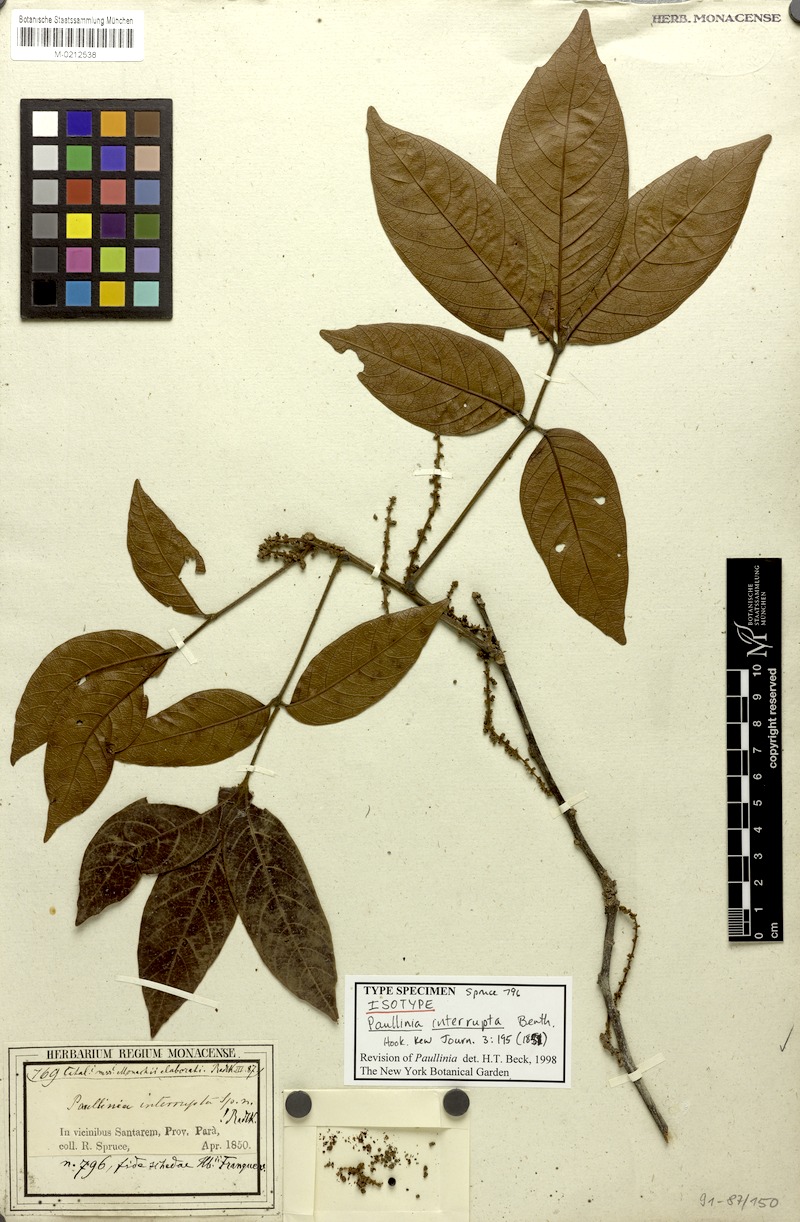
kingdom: Plantae
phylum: Tracheophyta
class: Magnoliopsida
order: Sapindales
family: Sapindaceae
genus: Paullinia
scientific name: Paullinia interrupta
